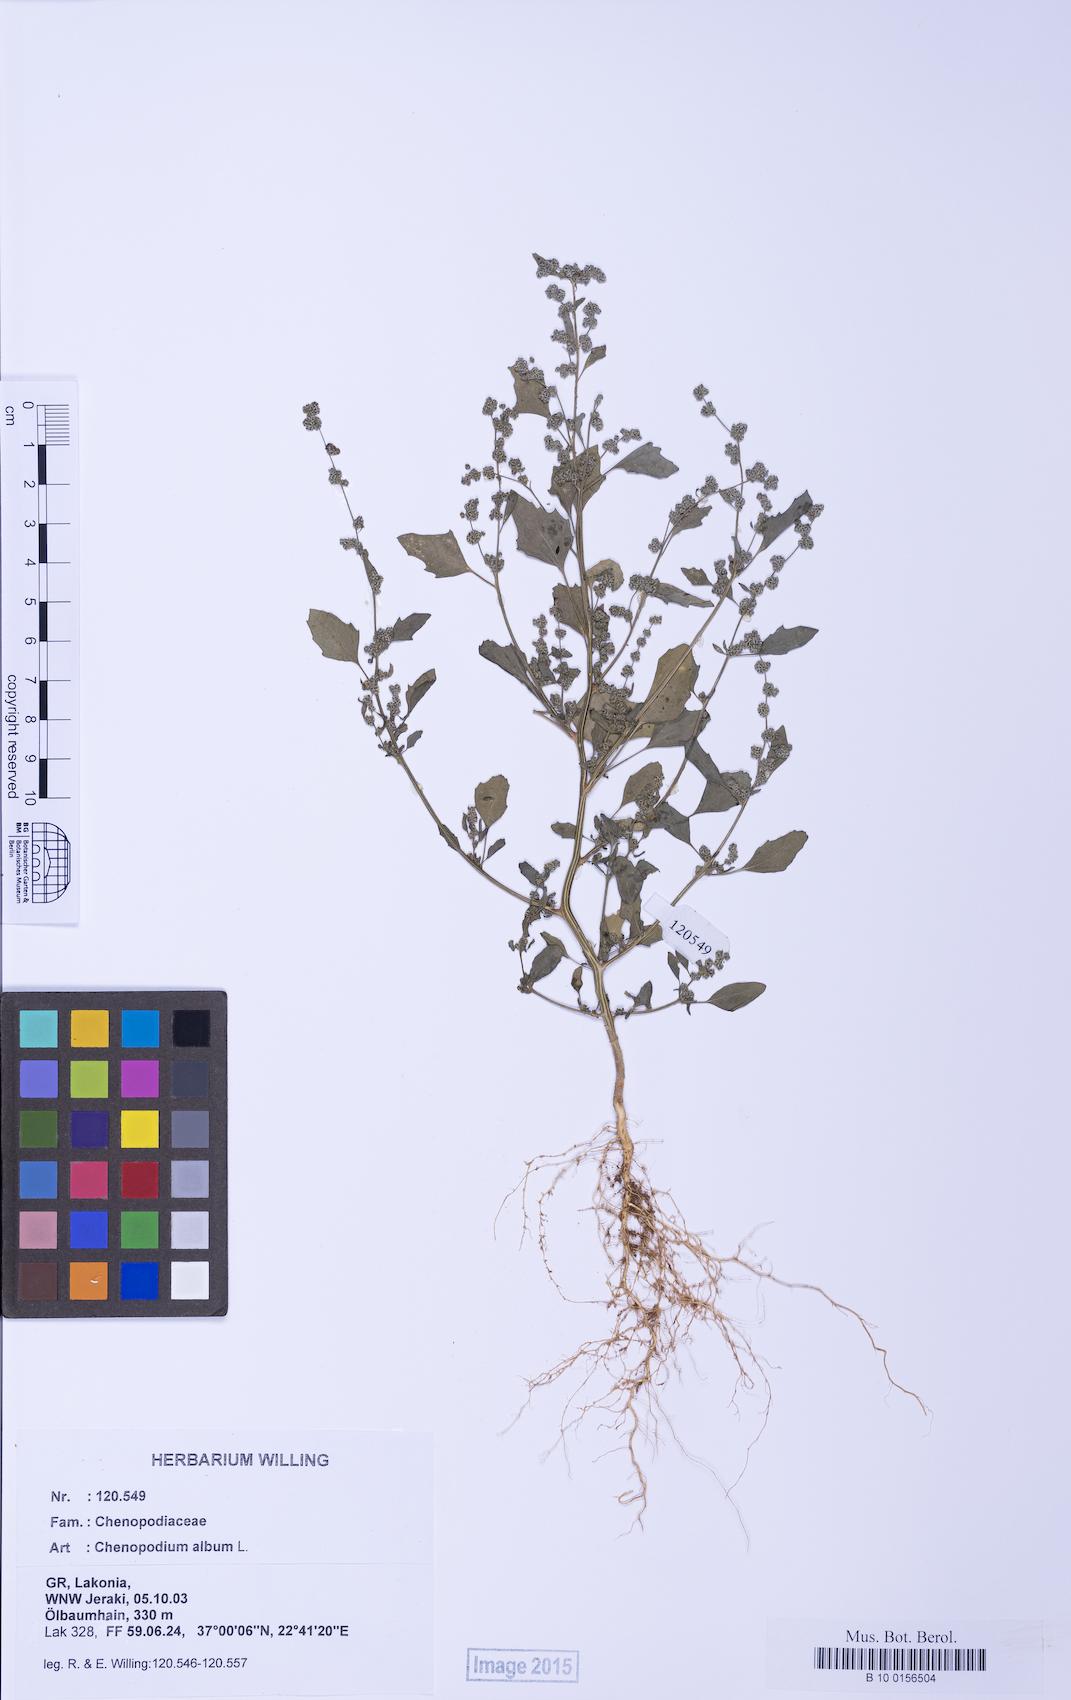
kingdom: Plantae
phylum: Tracheophyta
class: Magnoliopsida
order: Caryophyllales
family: Amaranthaceae
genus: Chenopodium
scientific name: Chenopodium striatiforme
